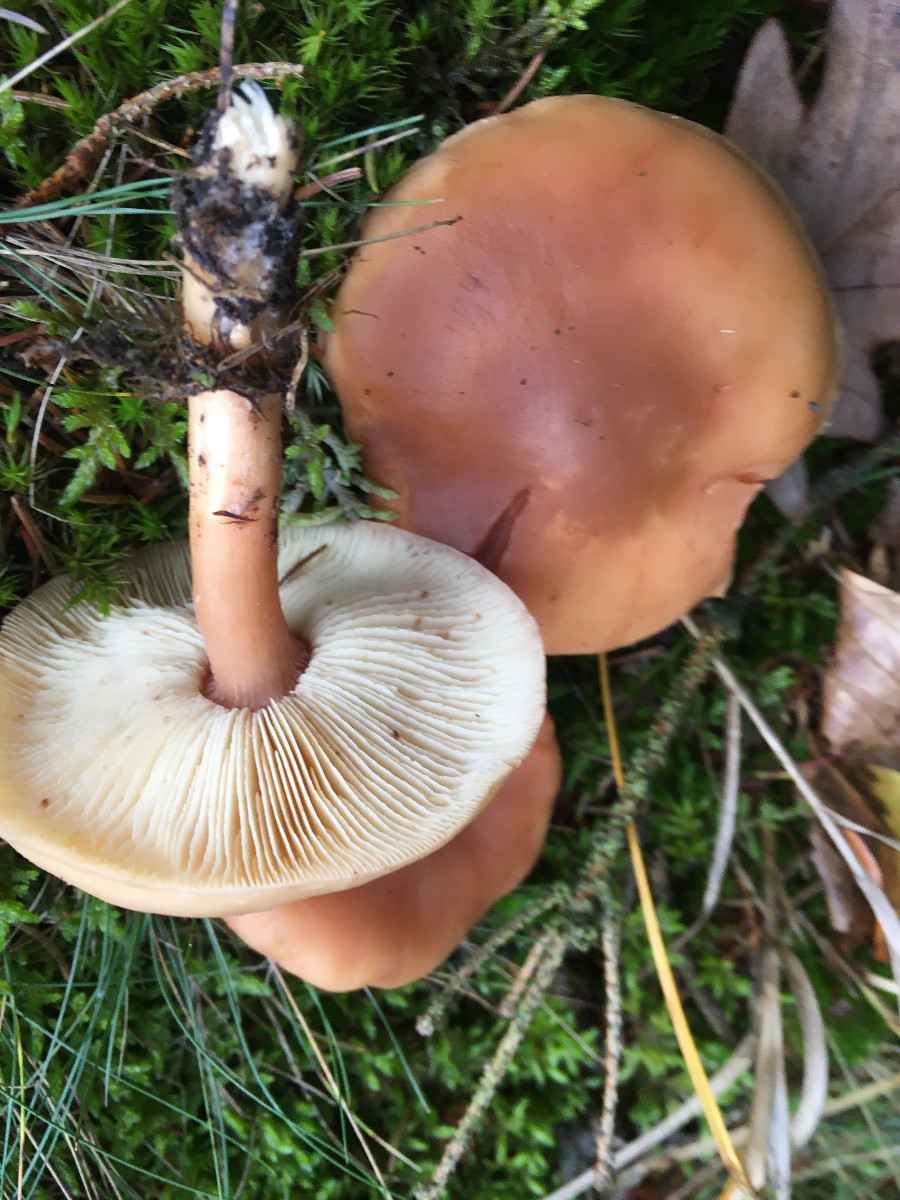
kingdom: Fungi
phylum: Basidiomycota
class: Agaricomycetes
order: Agaricales
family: Omphalotaceae
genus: Rhodocollybia
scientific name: Rhodocollybia asema
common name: horngrå fladhat
